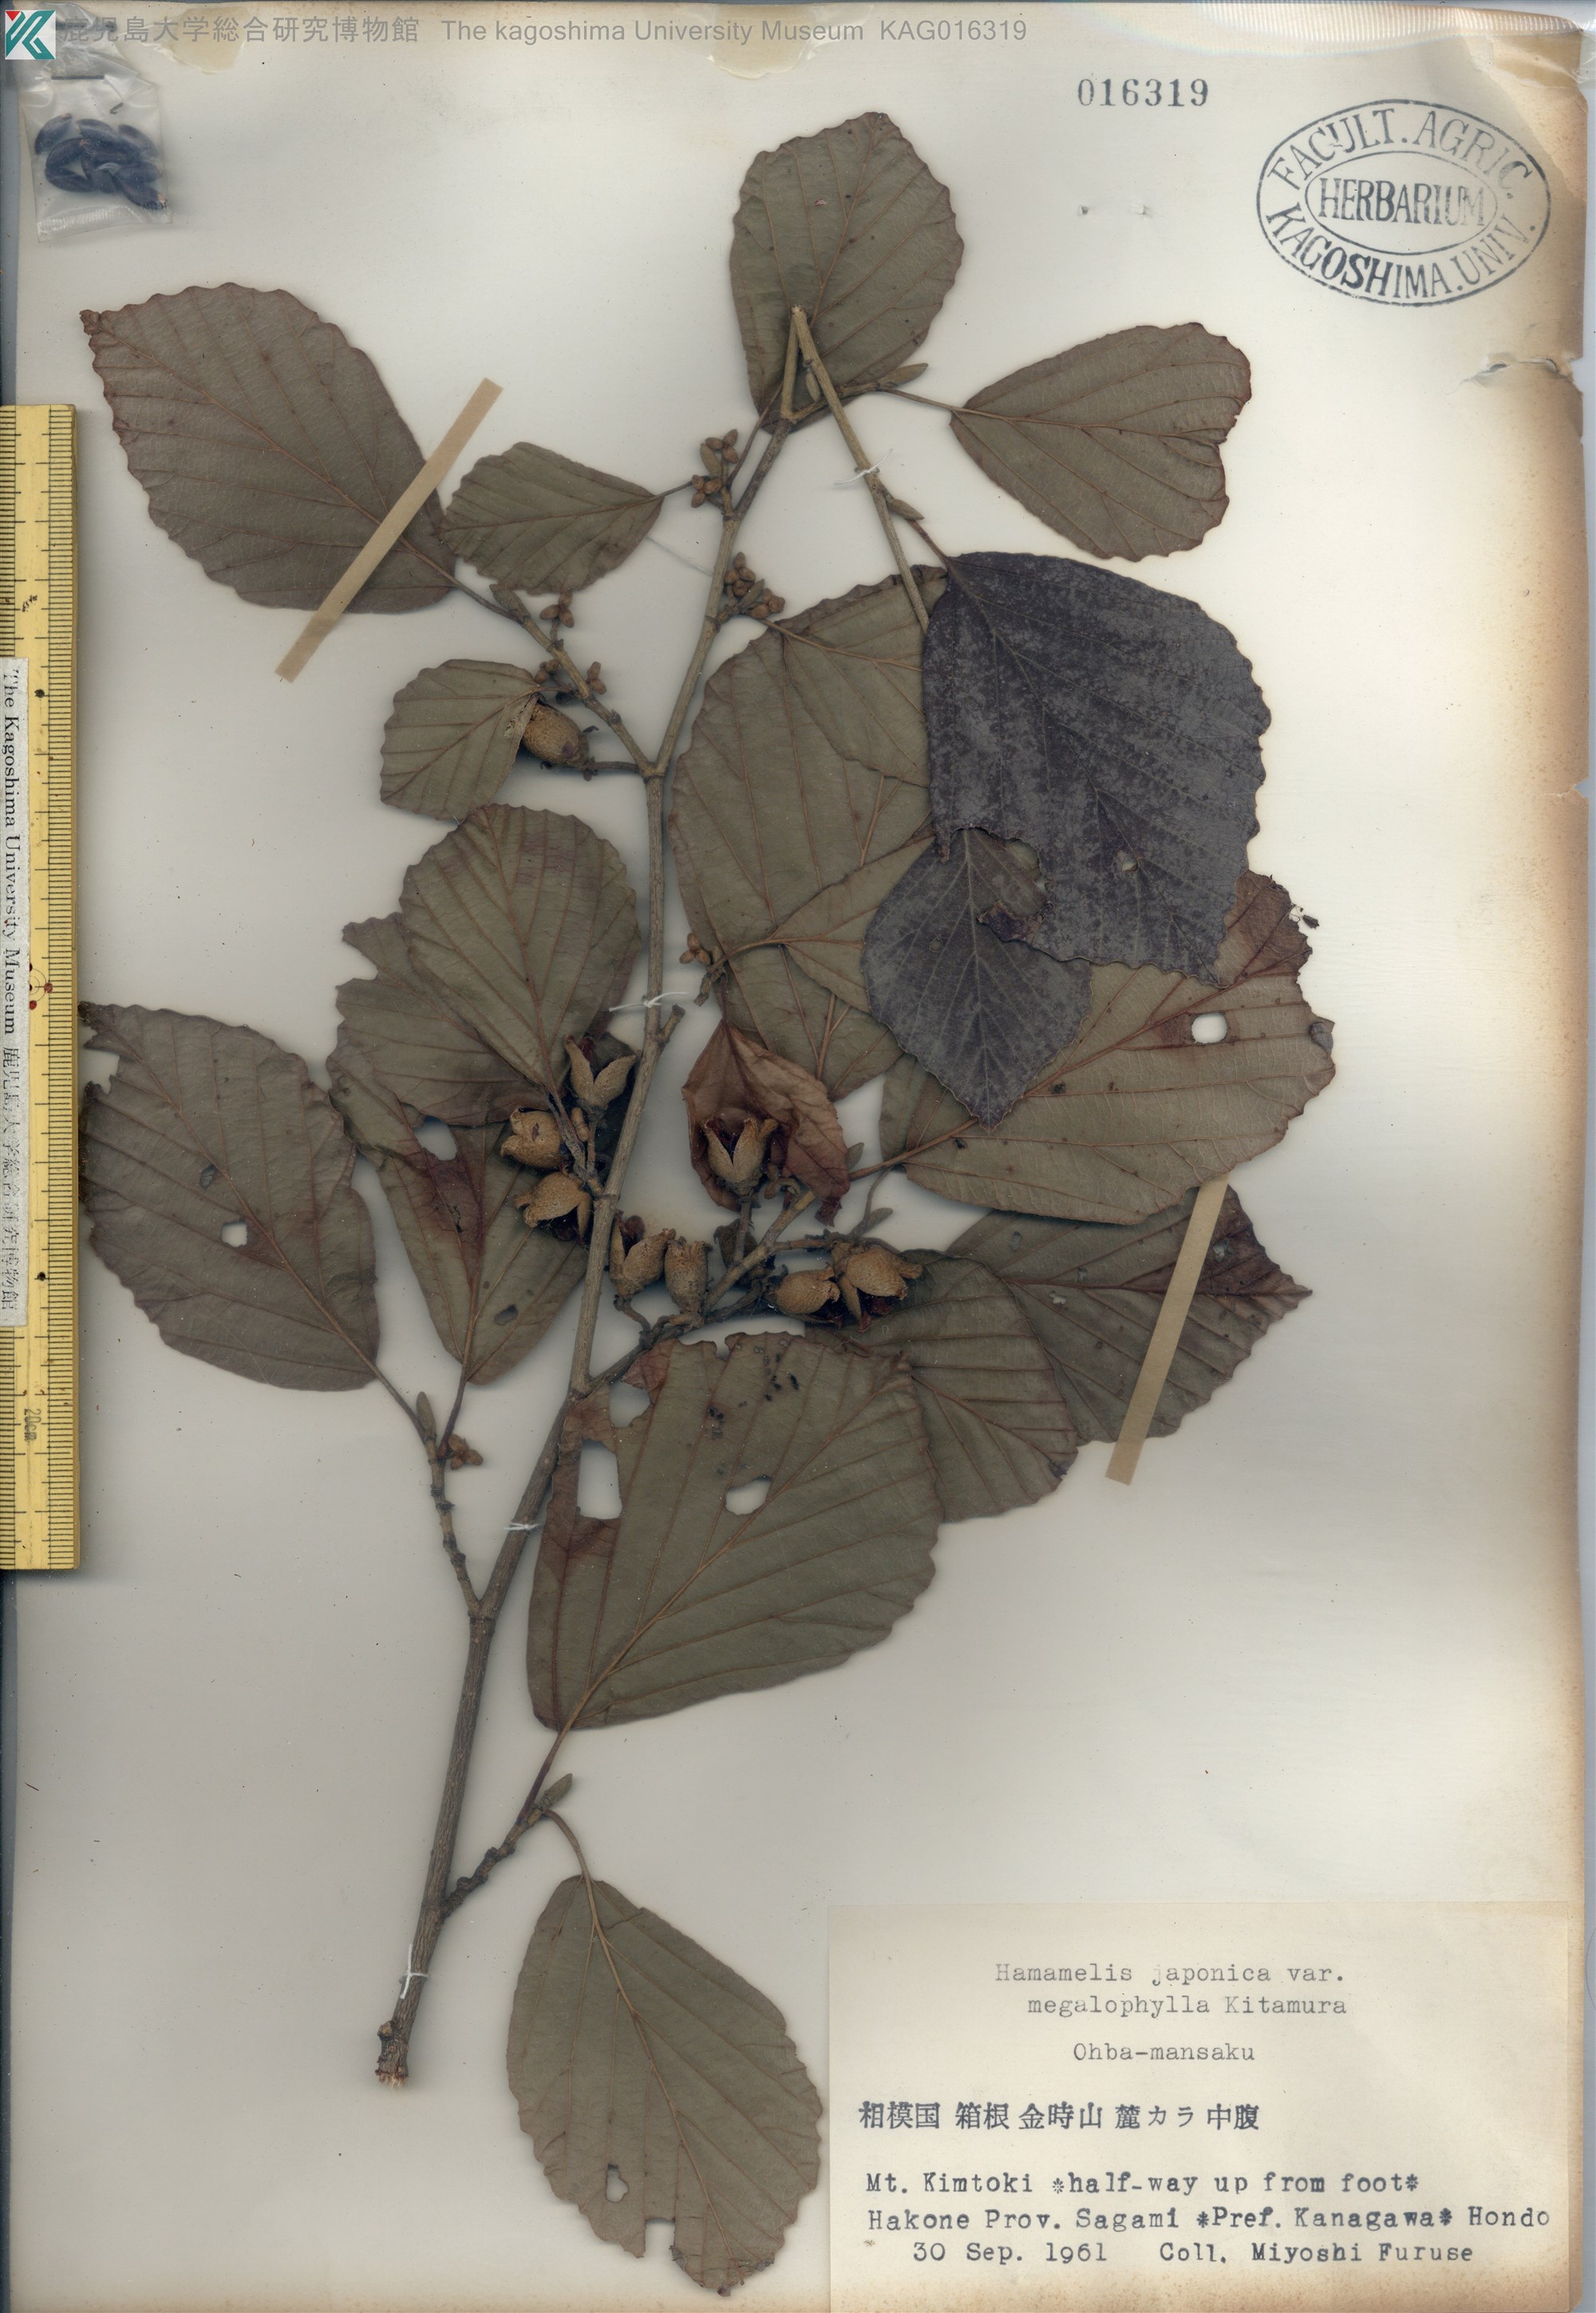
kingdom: Plantae
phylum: Tracheophyta
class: Magnoliopsida
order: Saxifragales
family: Hamamelidaceae
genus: Hamamelis
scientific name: Hamamelis japonica
